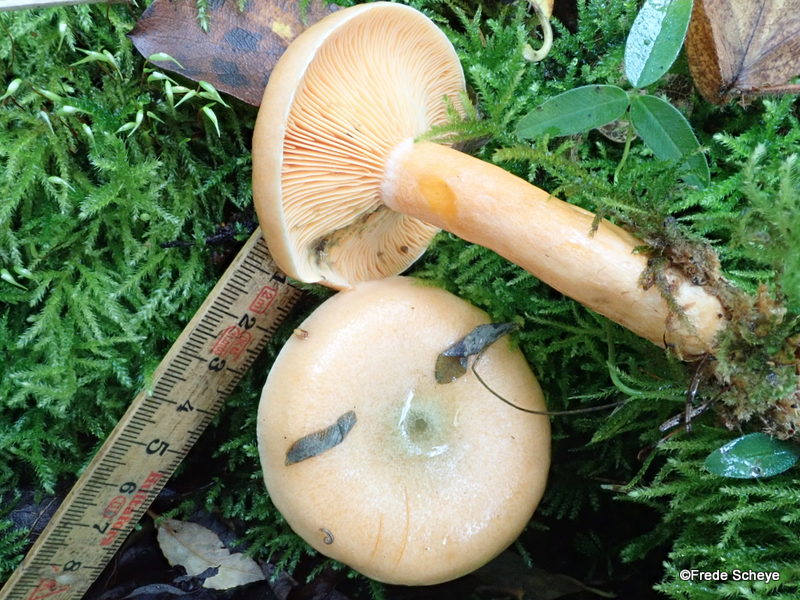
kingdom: Fungi
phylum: Basidiomycota
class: Agaricomycetes
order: Russulales
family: Russulaceae
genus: Lactarius
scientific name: Lactarius deterrimus
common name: gran-mælkehat
